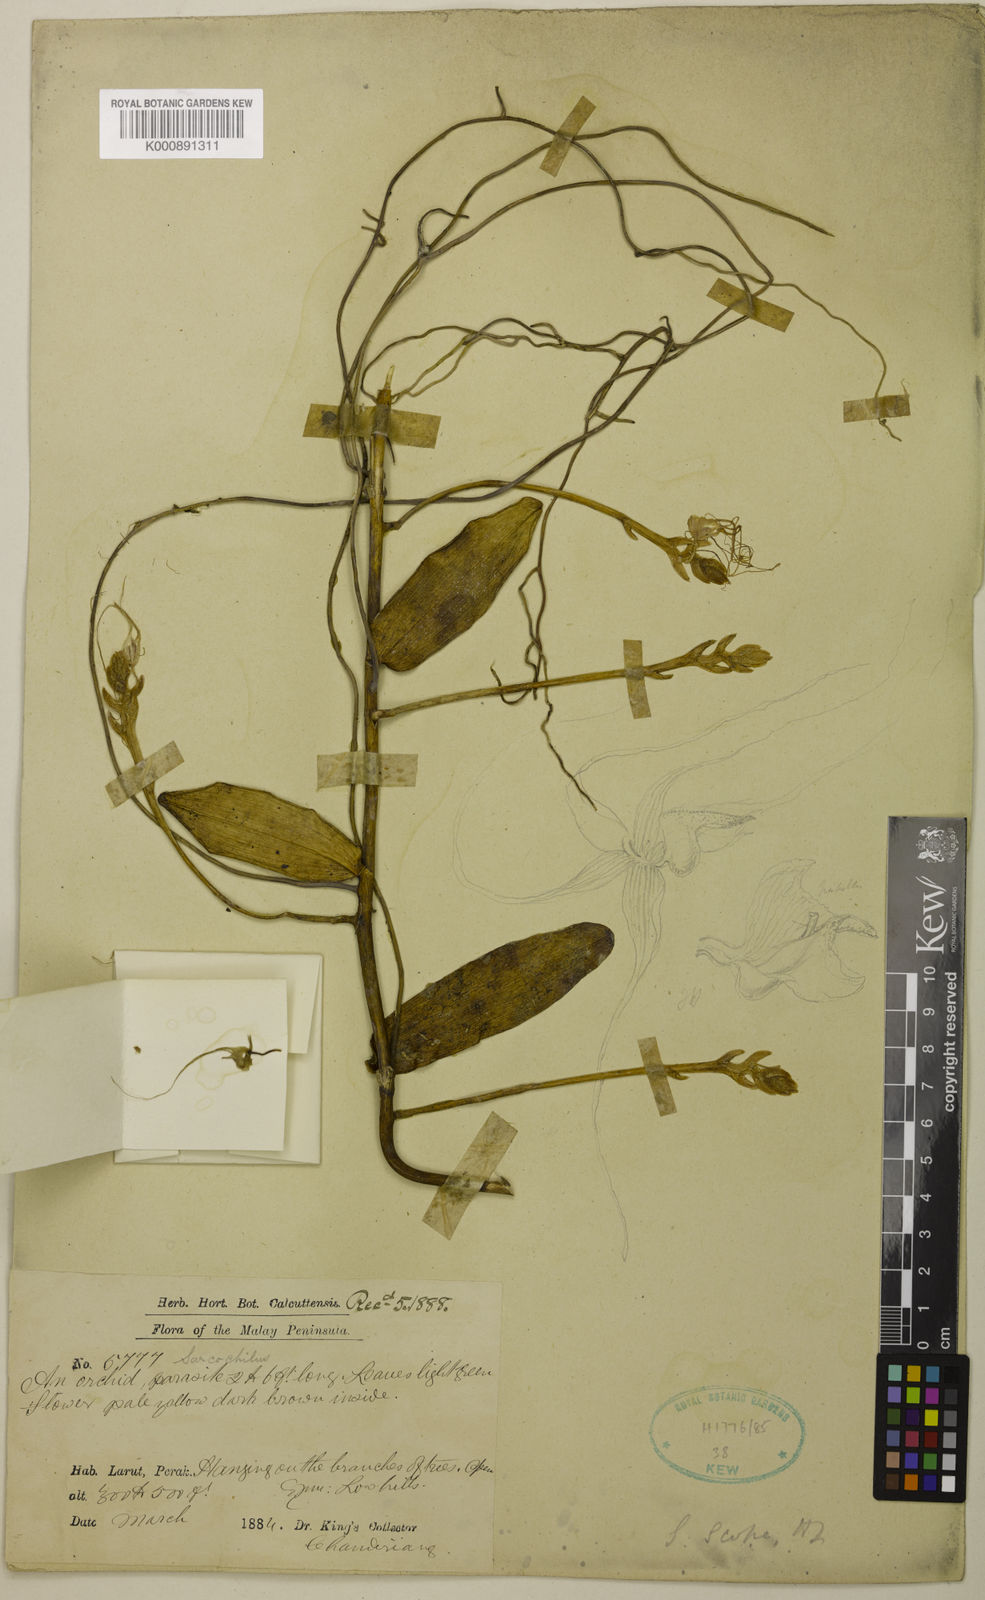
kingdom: Plantae
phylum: Tracheophyta
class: Liliopsida
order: Asparagales
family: Orchidaceae
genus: Thrixspermum
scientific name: Thrixspermum scopa
